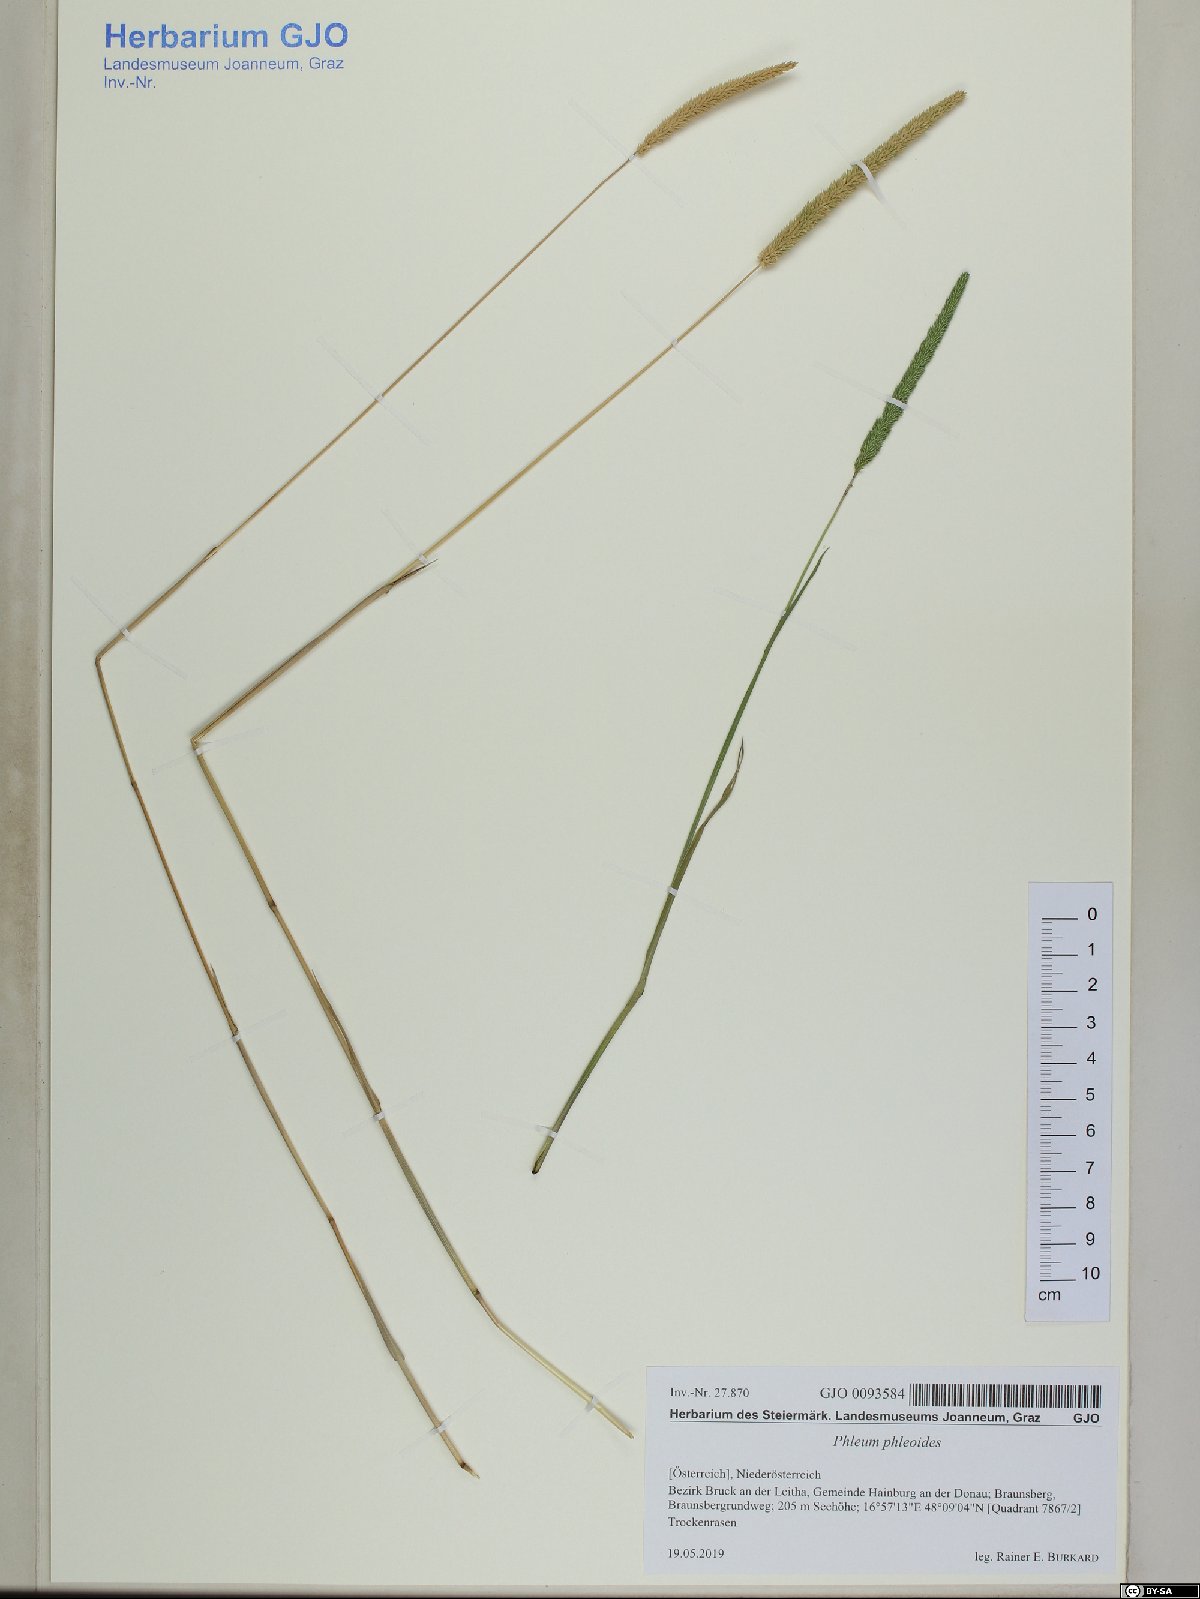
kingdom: Plantae
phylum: Tracheophyta
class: Liliopsida
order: Poales
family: Poaceae
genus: Phleum
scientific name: Phleum phleoides
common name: Purple-stem cat's-tail
